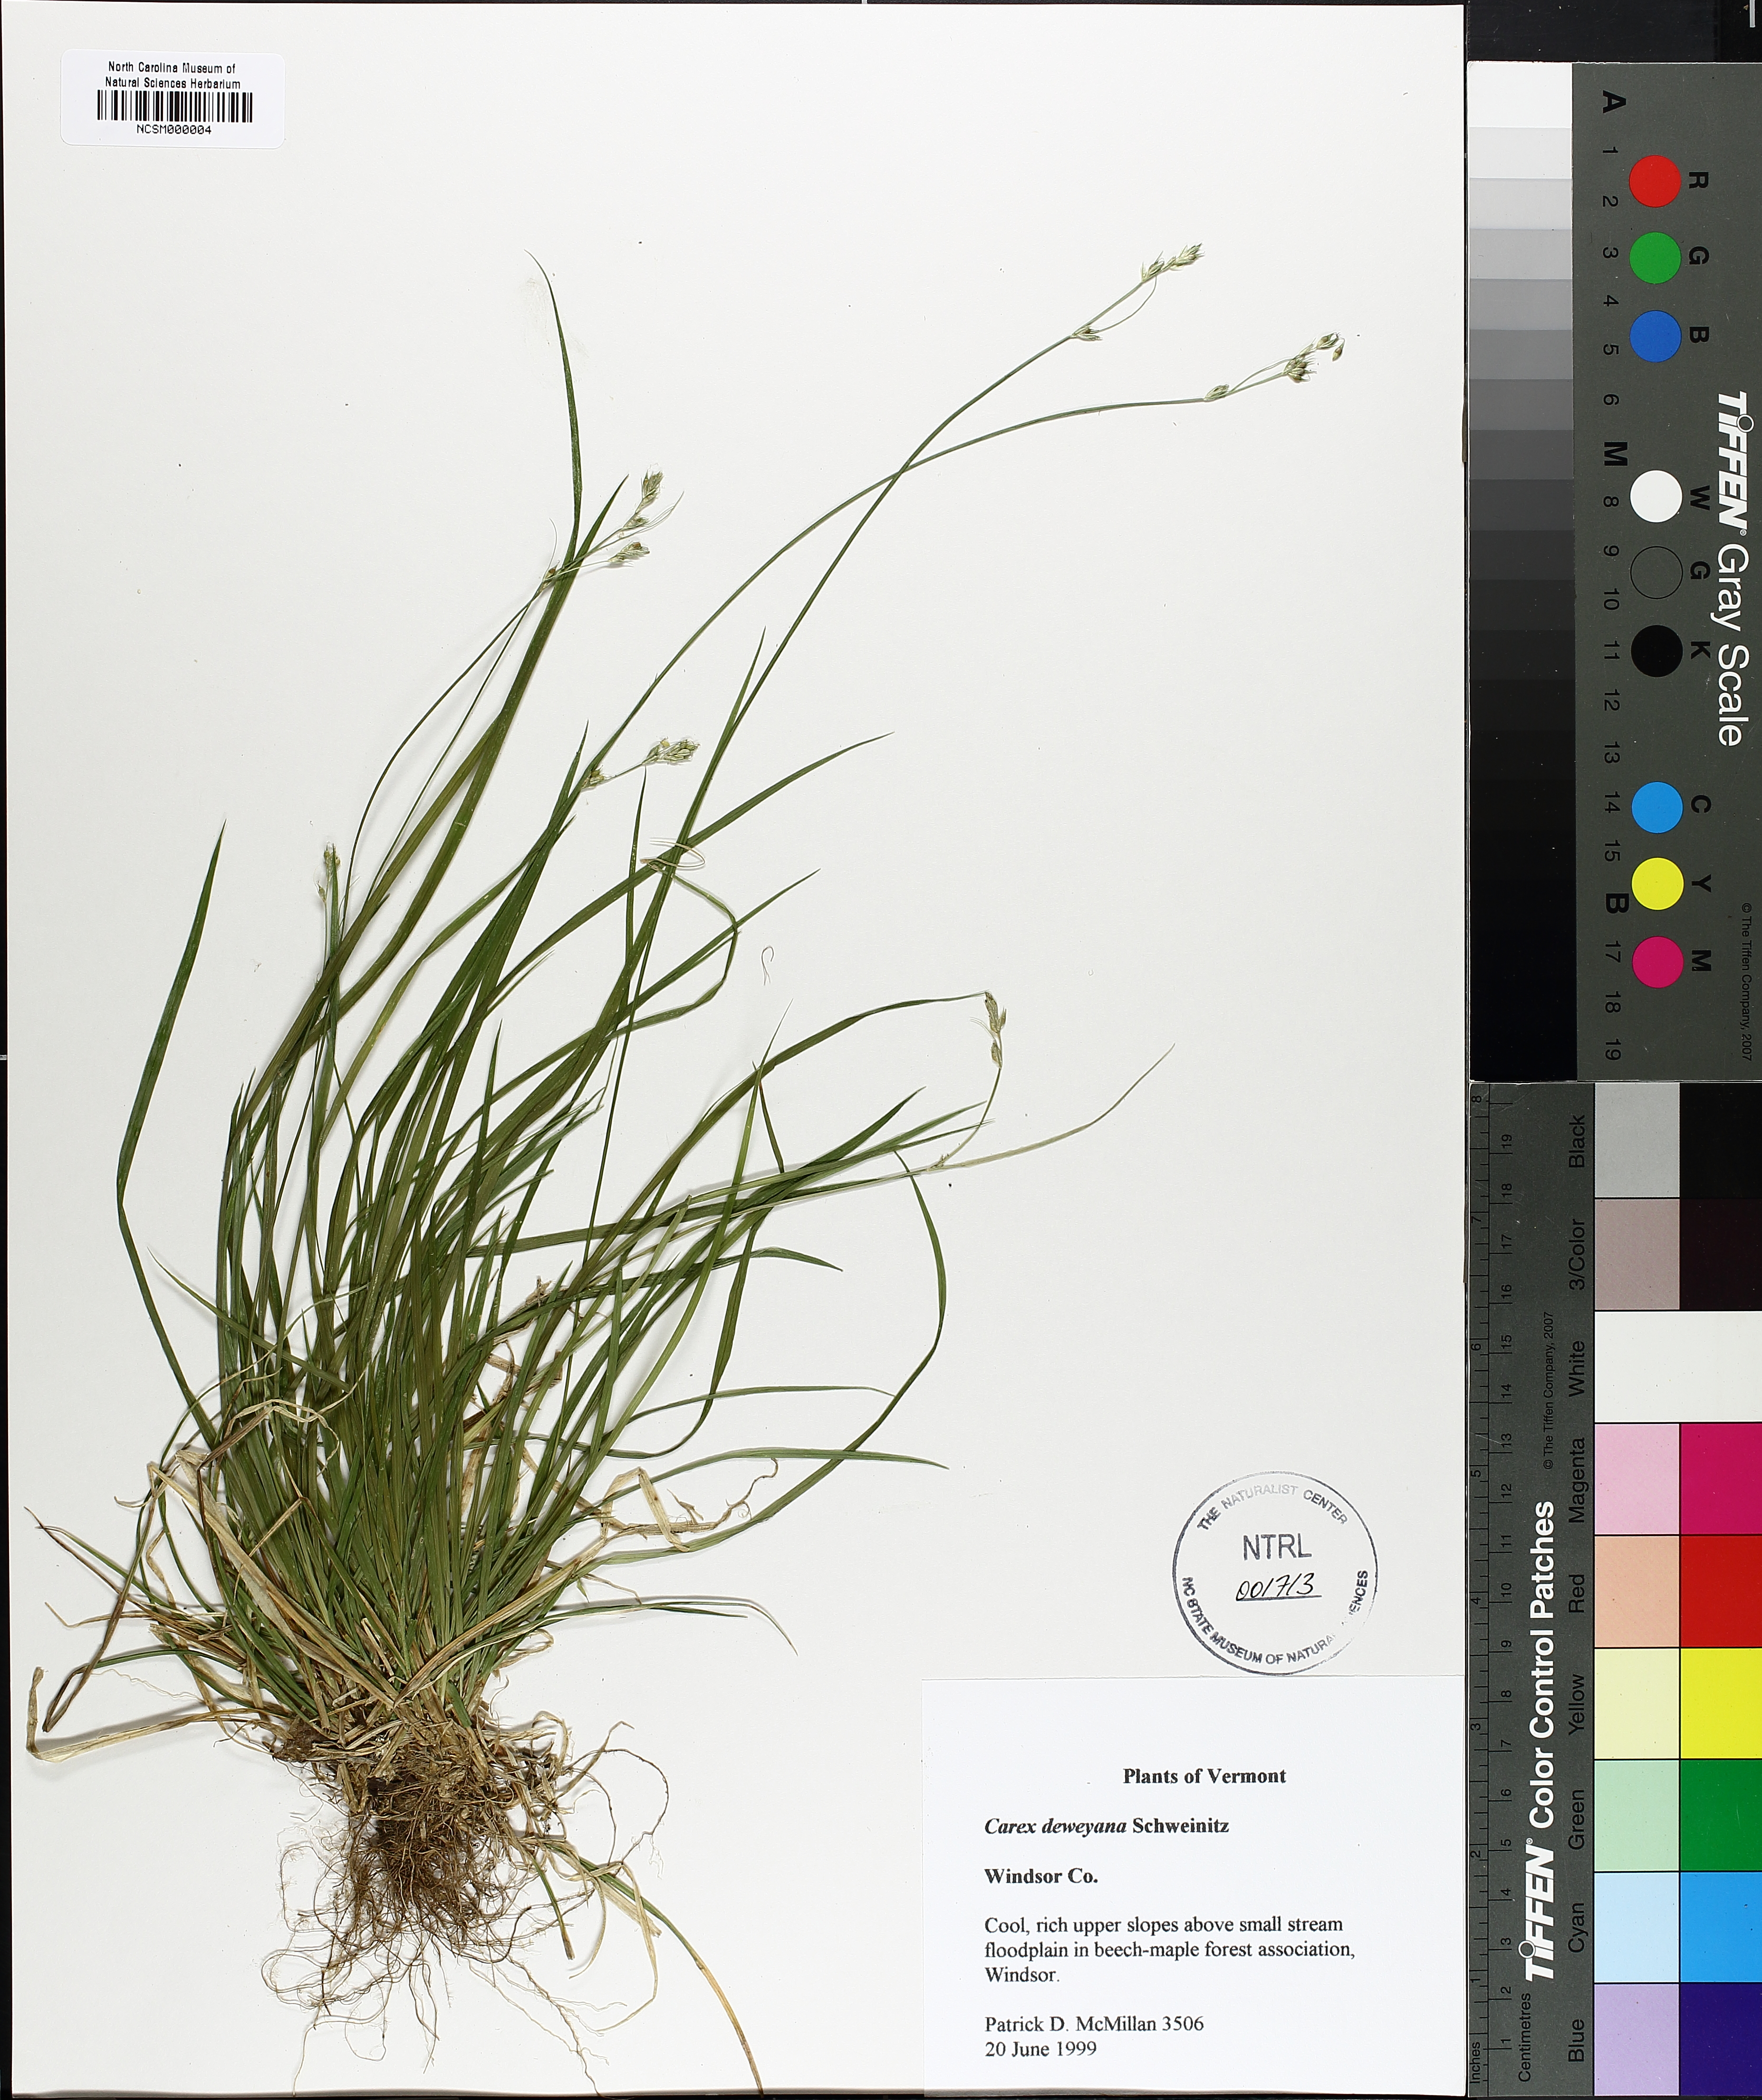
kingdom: Plantae
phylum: Tracheophyta
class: Liliopsida
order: Poales
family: Cyperaceae
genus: Carex
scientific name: Carex deweyana
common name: Dewey's sedge
